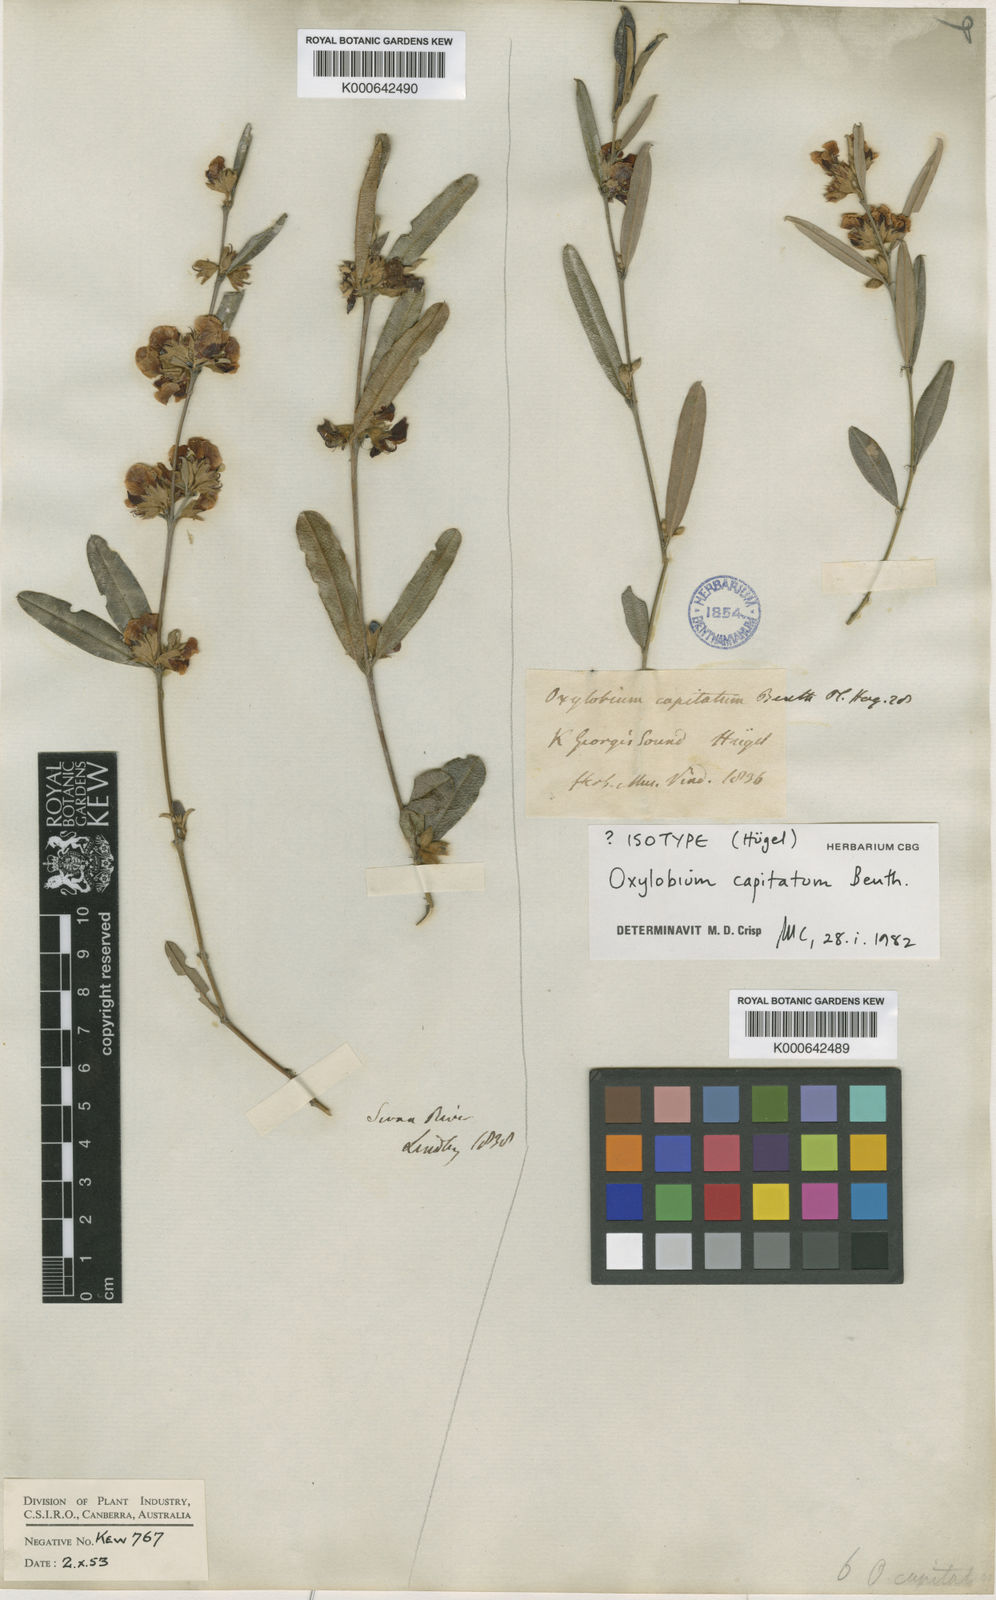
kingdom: Plantae
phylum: Tracheophyta
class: Magnoliopsida
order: Fabales
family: Fabaceae
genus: Gastrolobium
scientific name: Gastrolobium capitatum
